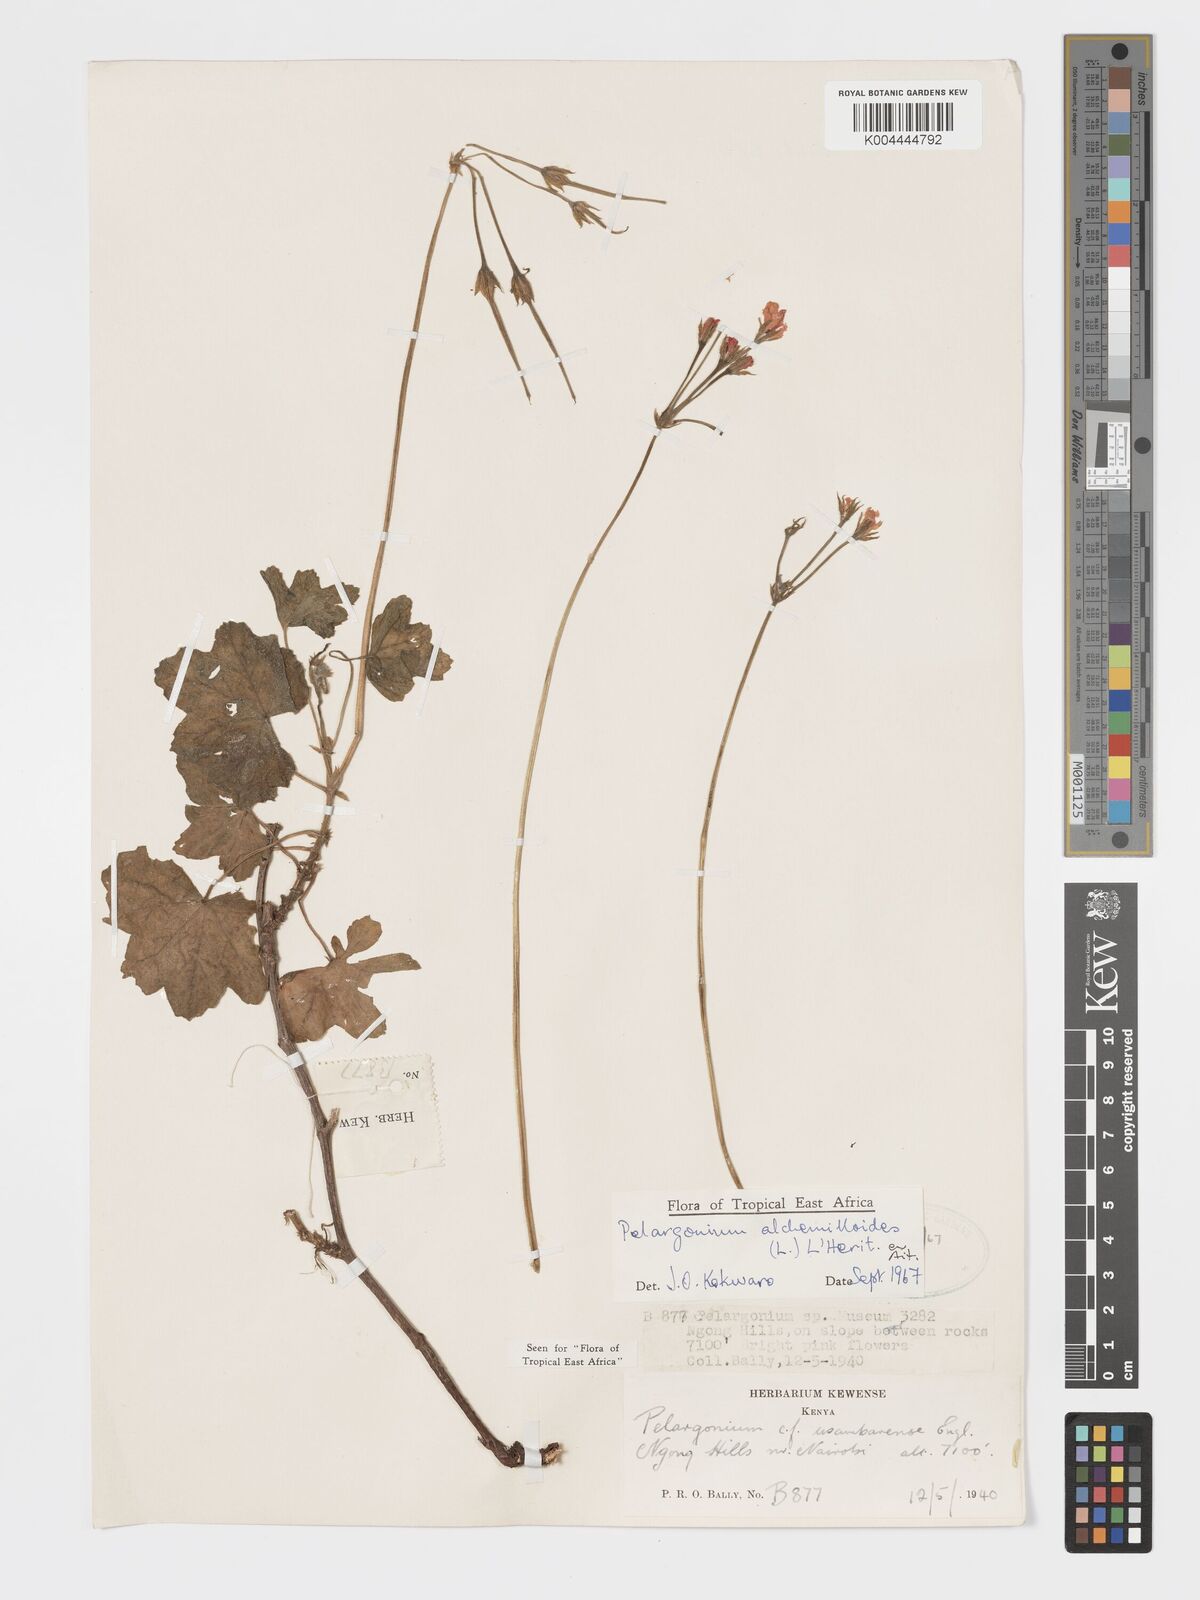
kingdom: Plantae
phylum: Tracheophyta
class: Magnoliopsida
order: Geraniales
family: Geraniaceae
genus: Pelargonium
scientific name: Pelargonium alchemilloides
